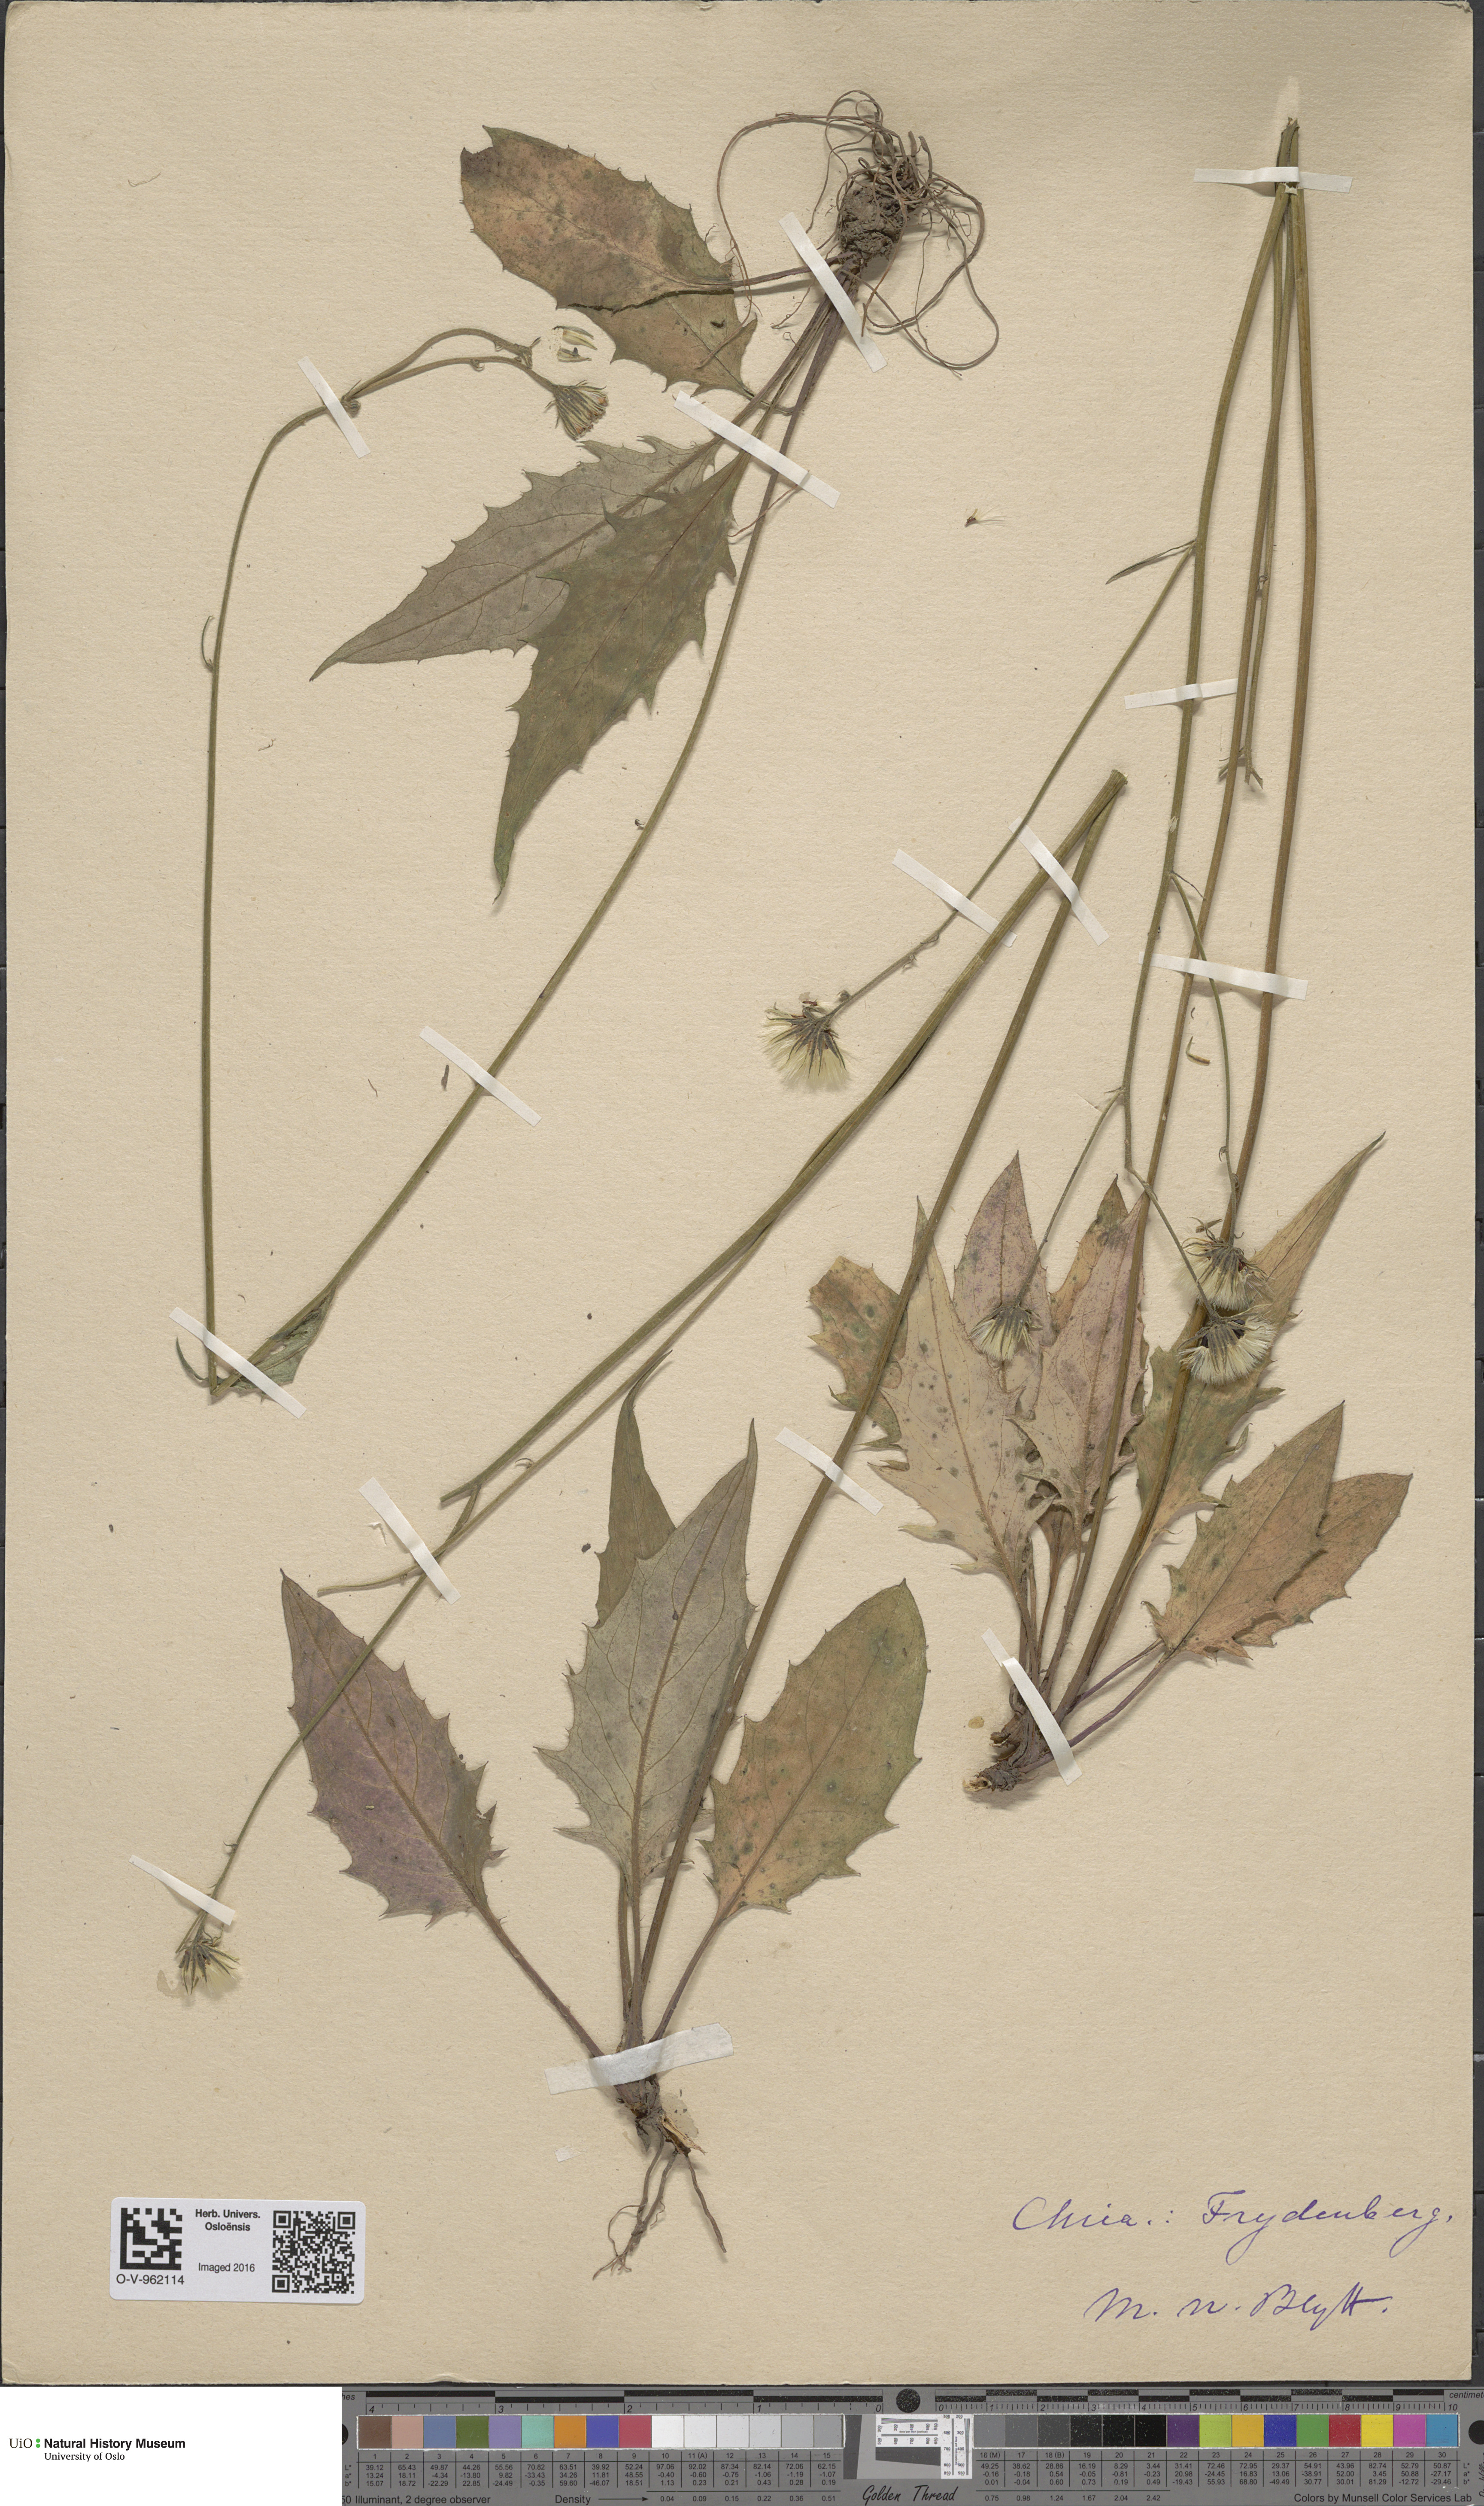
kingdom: Plantae
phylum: Tracheophyta
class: Magnoliopsida
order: Asterales
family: Asteraceae
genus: Hieracium
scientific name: Hieracium
